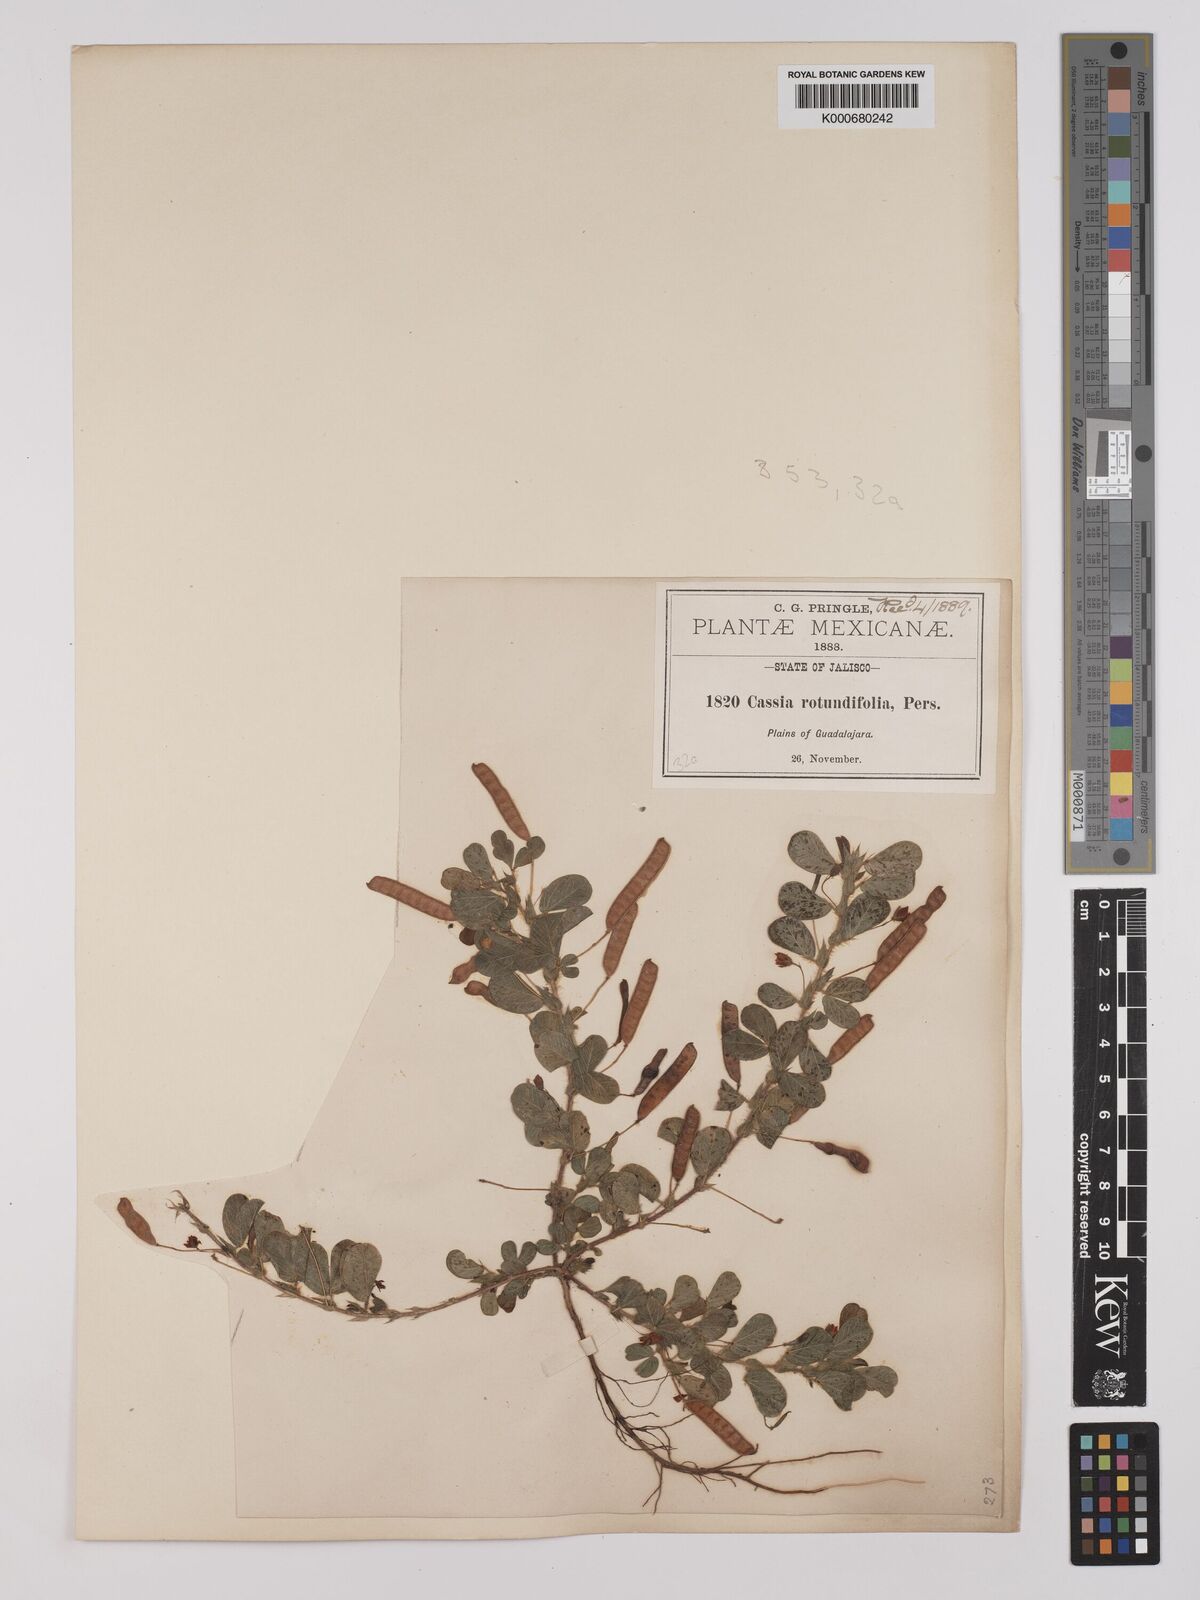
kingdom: Plantae
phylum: Tracheophyta
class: Magnoliopsida
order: Fabales
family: Fabaceae
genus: Chamaecrista
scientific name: Chamaecrista rotundifolia
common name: Round-leaf cassia
